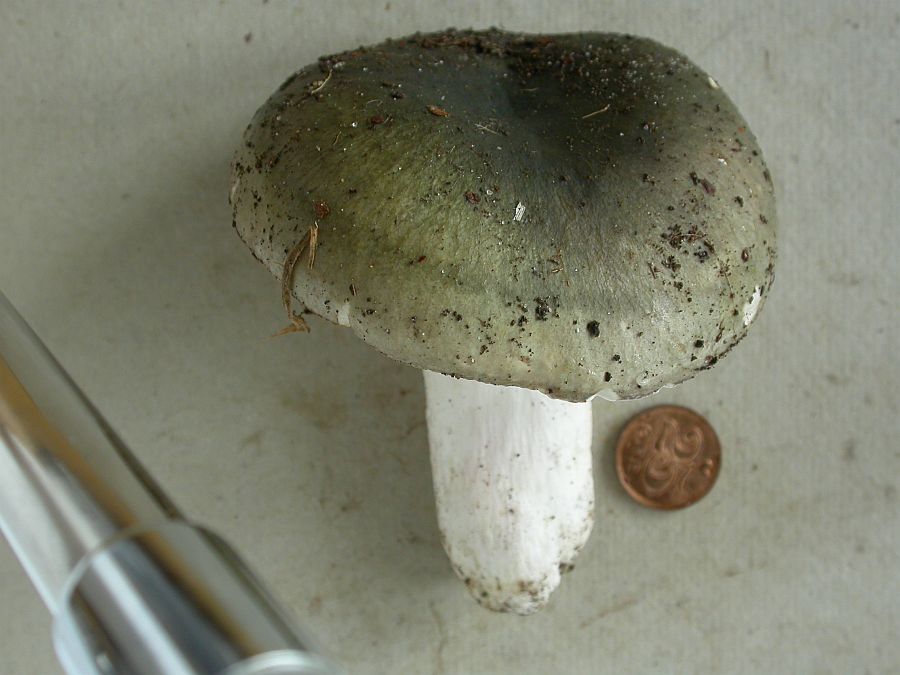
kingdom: Fungi
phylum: Basidiomycota
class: Agaricomycetes
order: Russulales
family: Russulaceae
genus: Russula
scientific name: Russula heterophylla
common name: gaffelbladet skørhat
